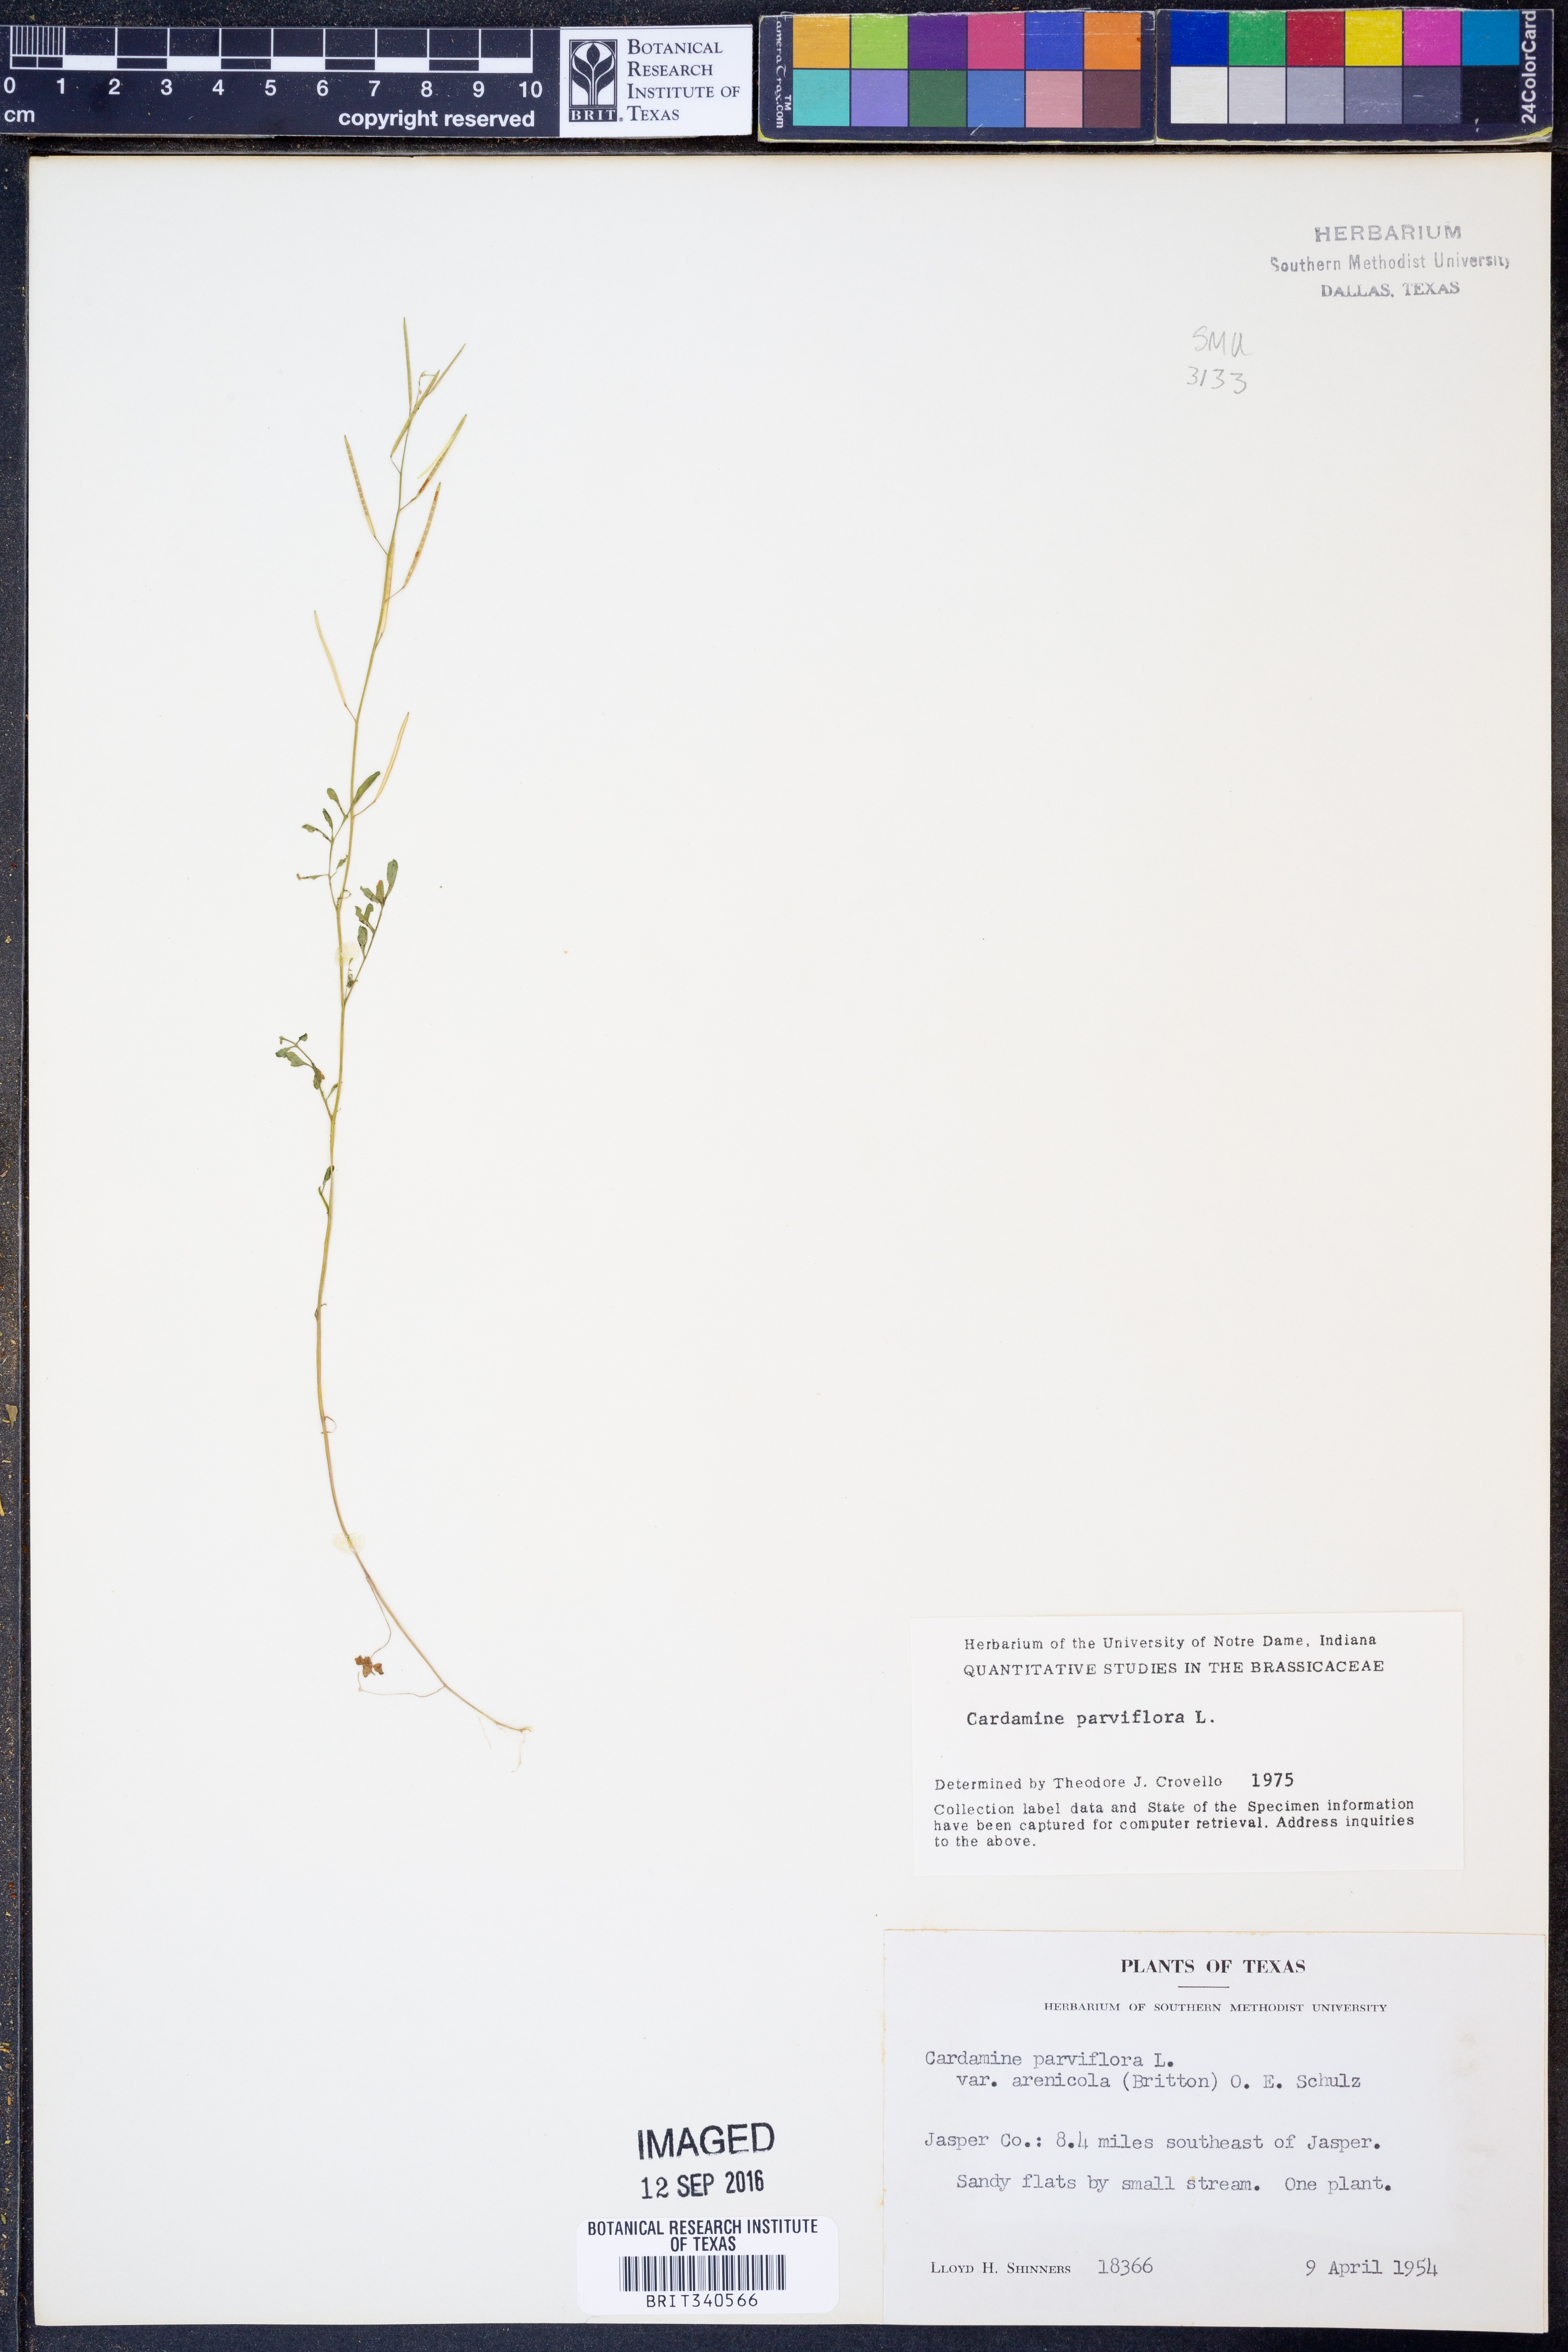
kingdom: Plantae
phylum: Tracheophyta
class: Magnoliopsida
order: Brassicales
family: Brassicaceae
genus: Cardamine
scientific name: Cardamine parviflora
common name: Sand bittercress
